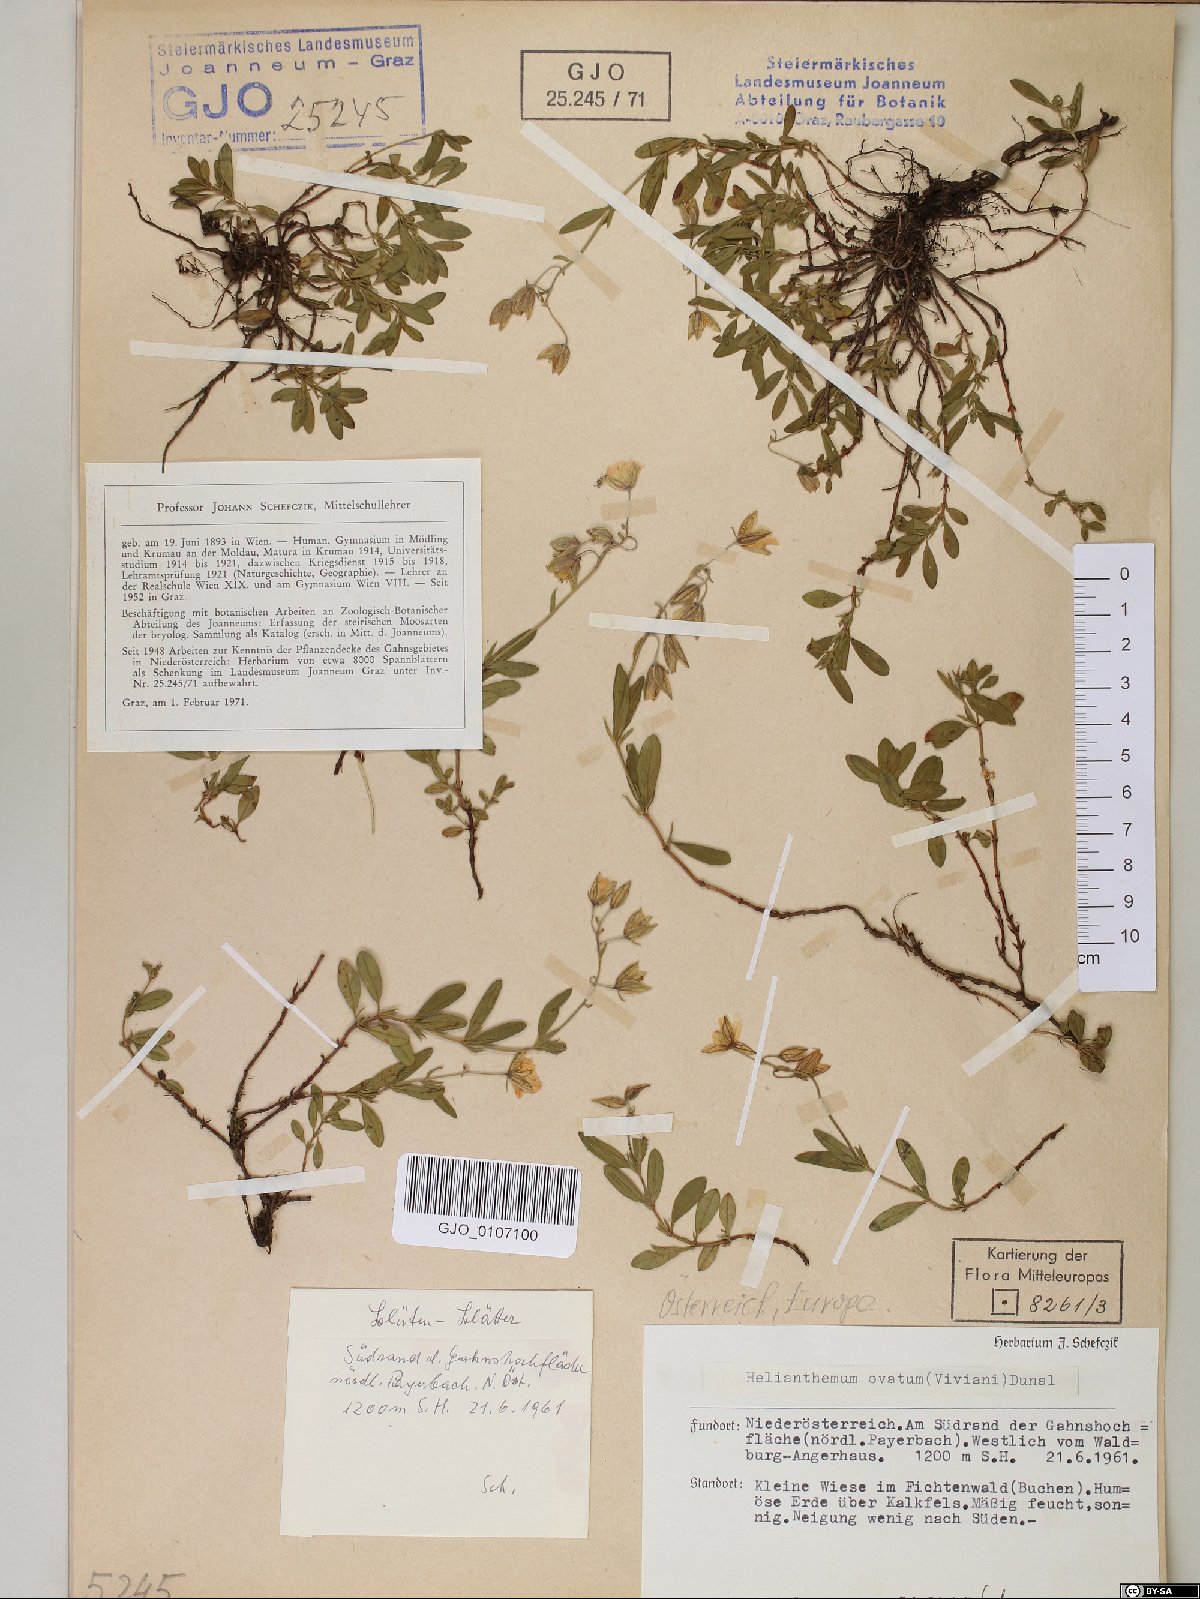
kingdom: Plantae
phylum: Tracheophyta
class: Magnoliopsida
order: Malvales
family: Cistaceae
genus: Helianthemum
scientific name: Helianthemum nummularium
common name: Common rock-rose
